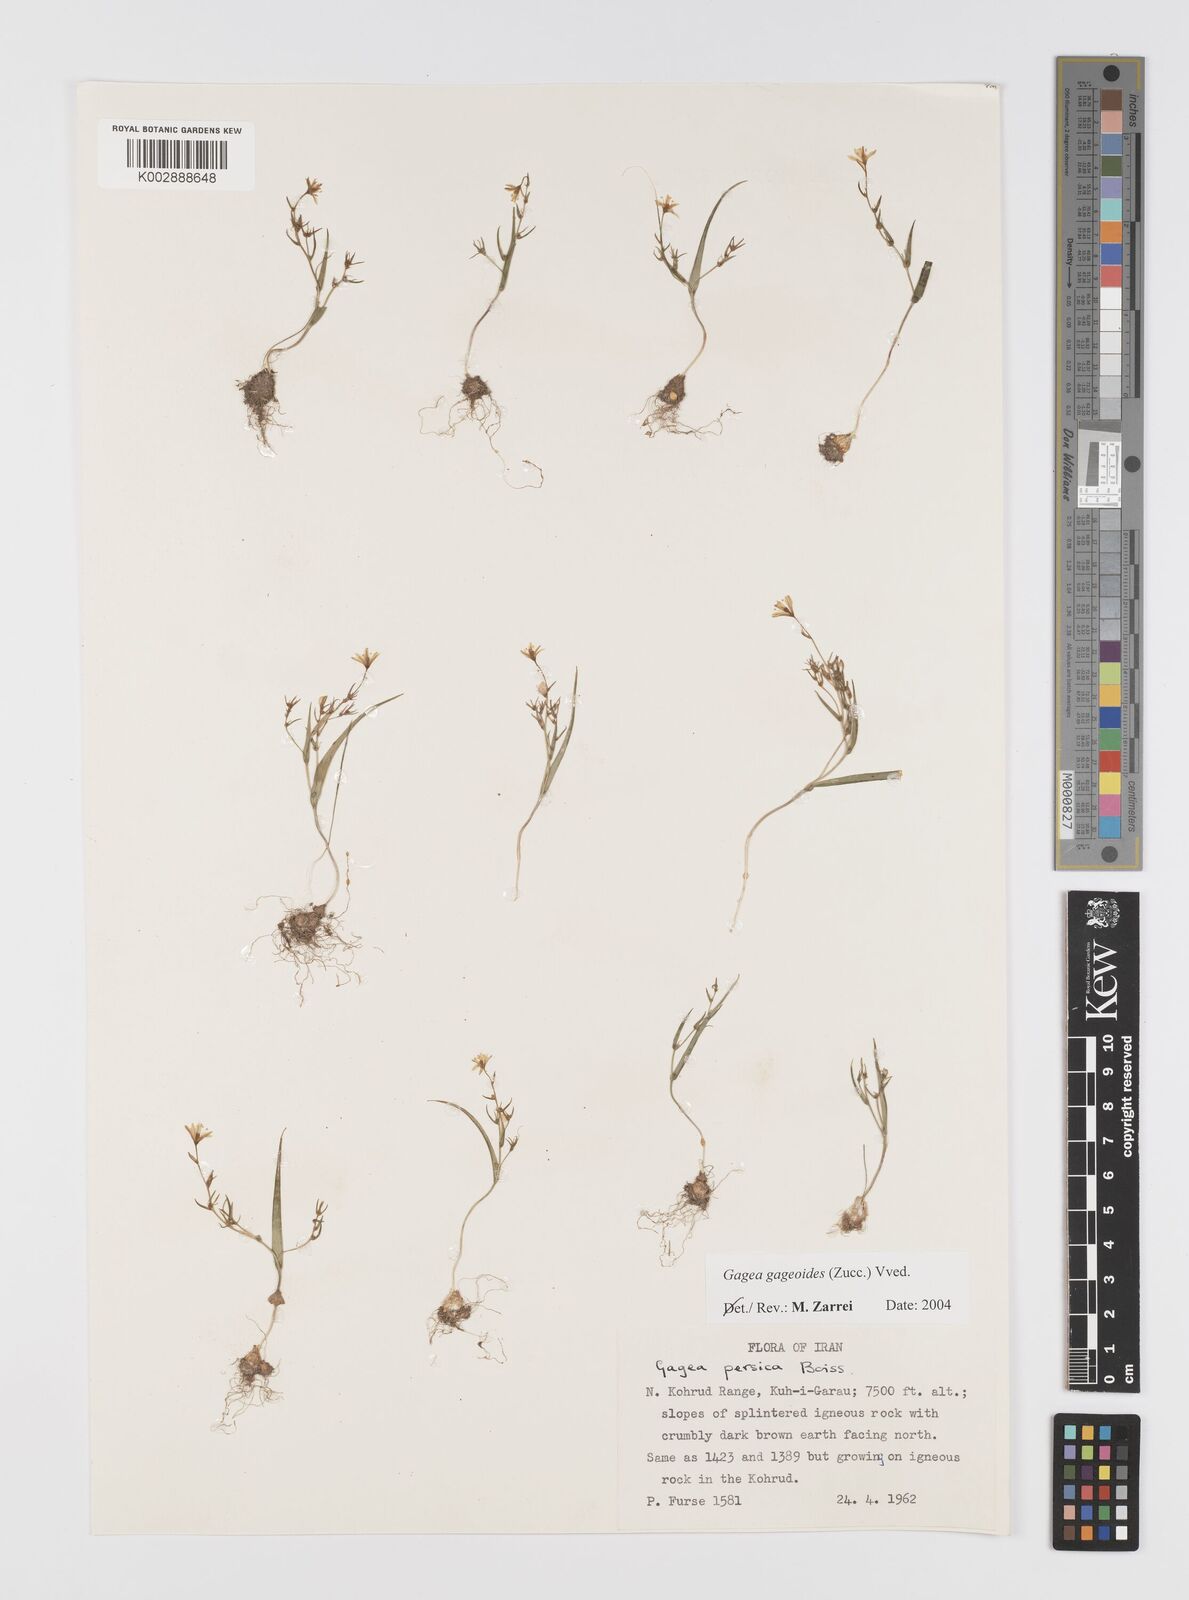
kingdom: Plantae
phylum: Tracheophyta
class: Liliopsida
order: Liliales
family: Liliaceae
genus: Gagea
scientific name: Gagea gageoides
